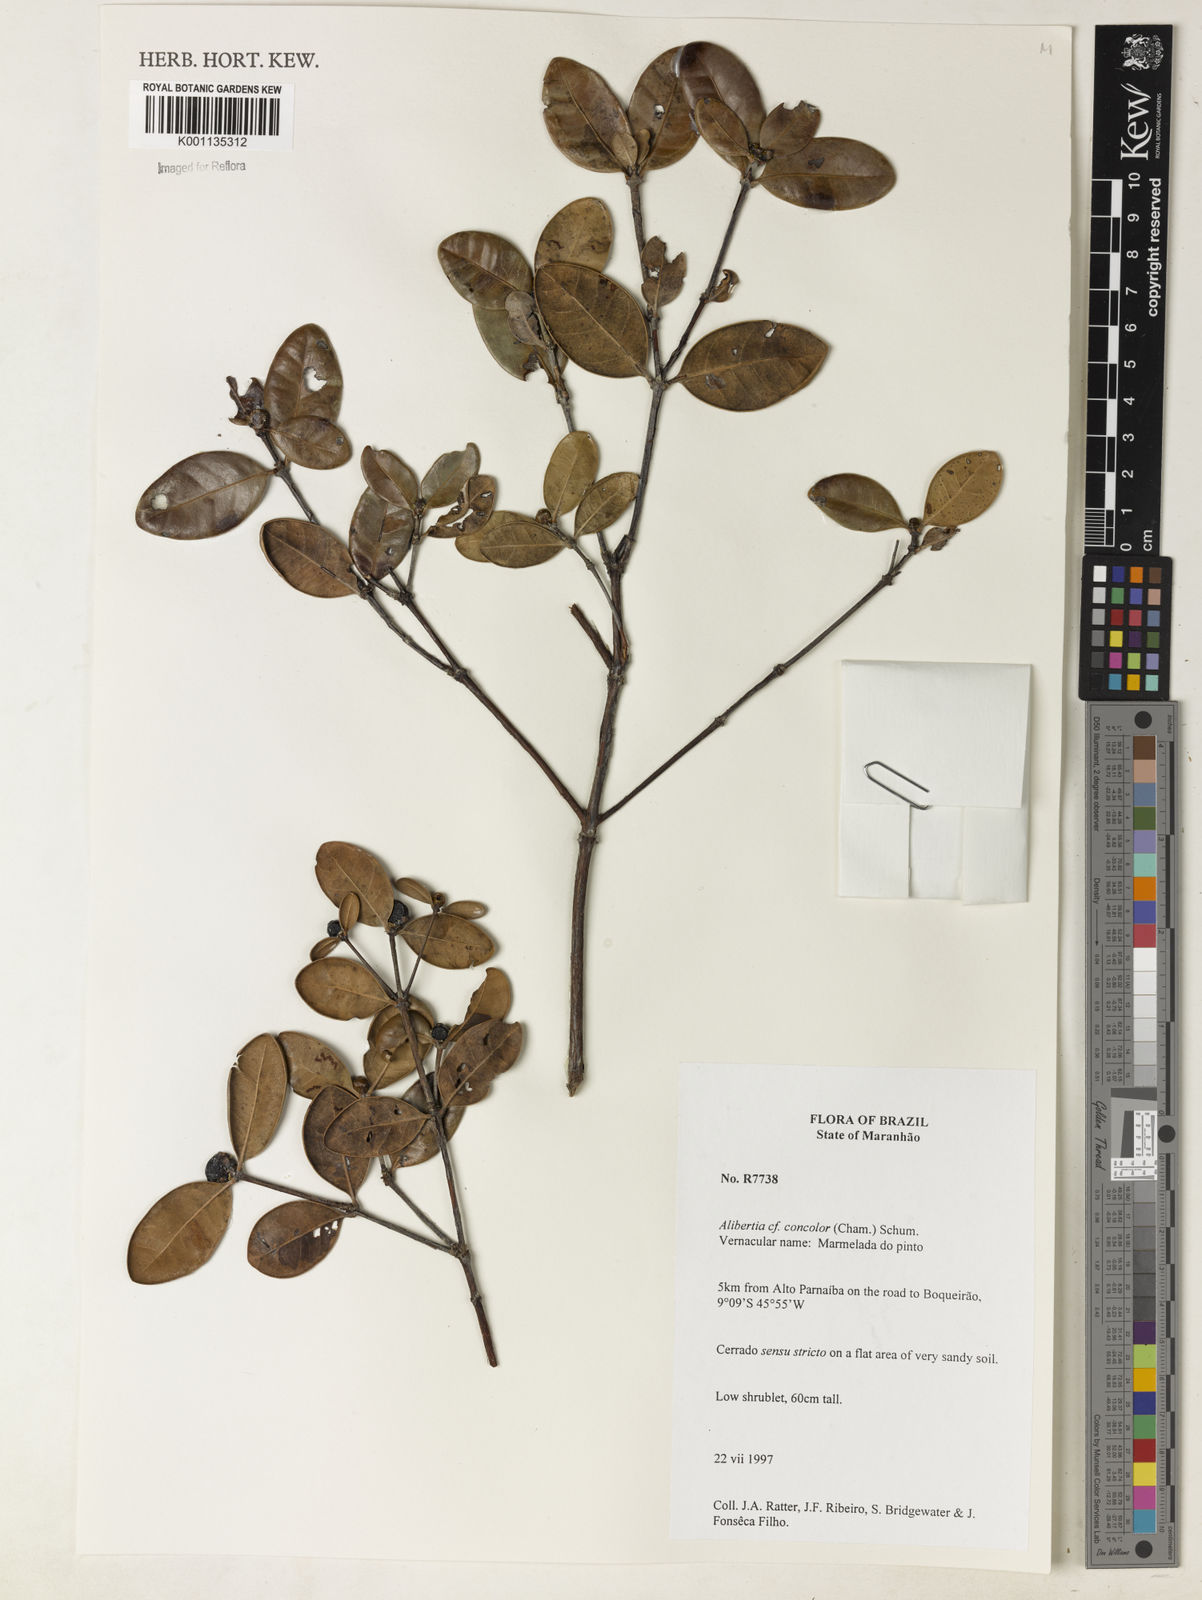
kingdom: Plantae
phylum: Tracheophyta
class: Magnoliopsida
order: Gentianales
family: Rubiaceae
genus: Cordiera
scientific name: Cordiera concolor
